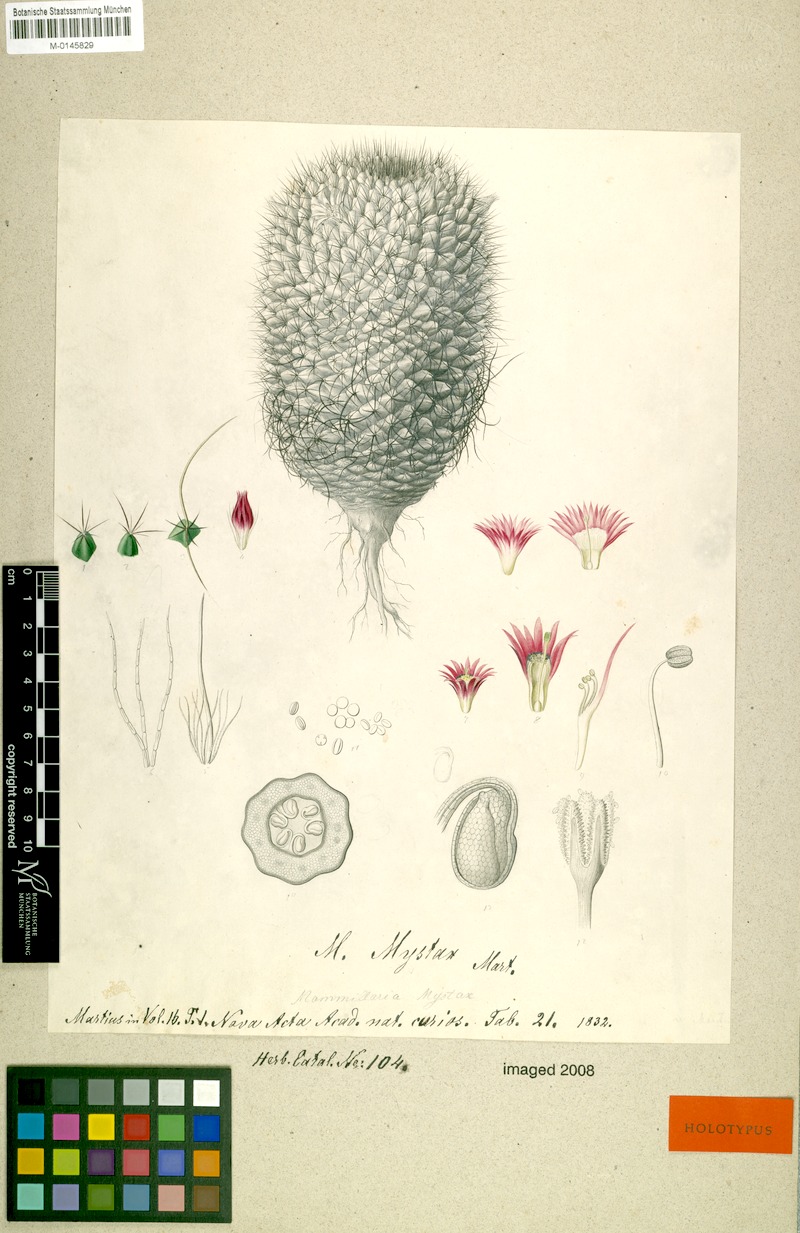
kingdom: Plantae
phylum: Tracheophyta
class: Magnoliopsida
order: Caryophyllales
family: Cactaceae
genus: Mammillaria
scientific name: Mammillaria mystax
